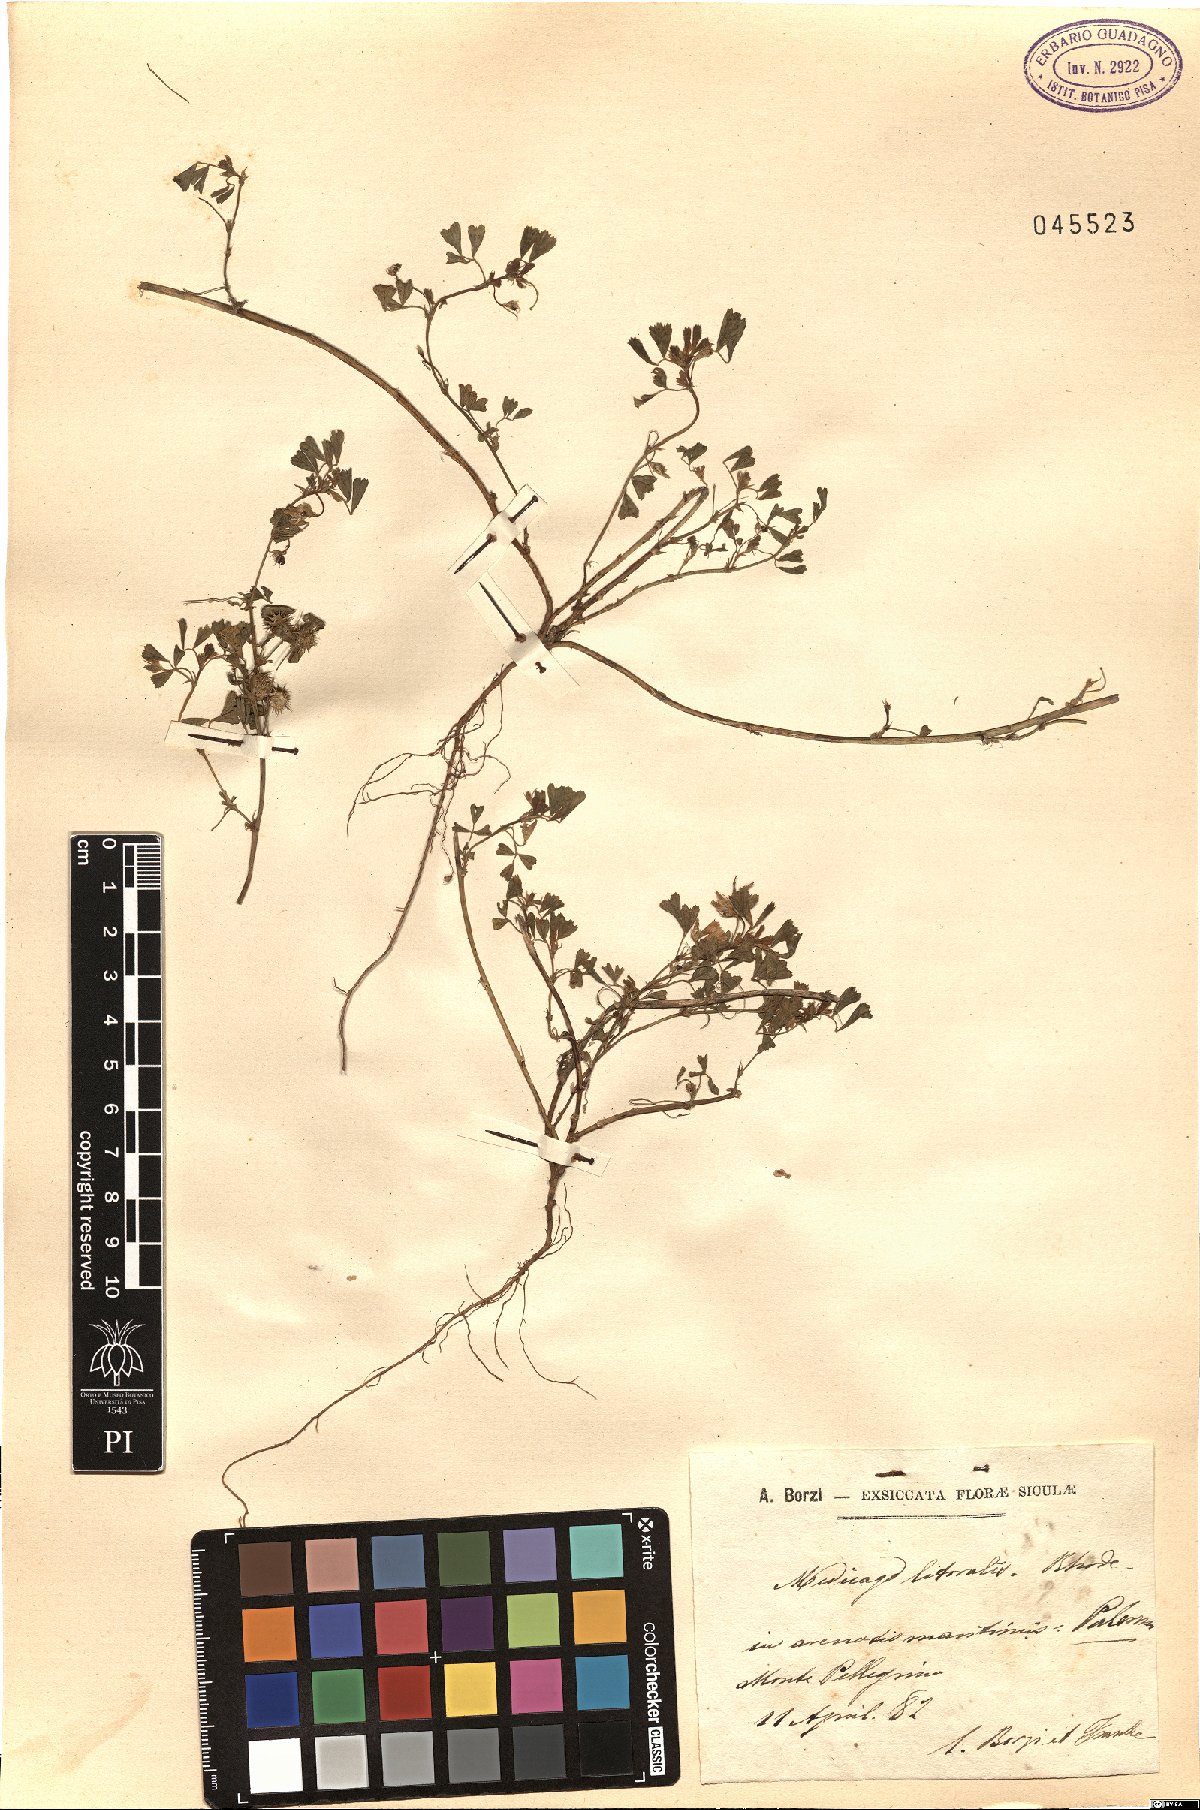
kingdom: Plantae
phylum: Tracheophyta
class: Magnoliopsida
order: Fabales
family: Fabaceae
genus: Medicago
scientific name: Medicago littoralis
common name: Shore medick
